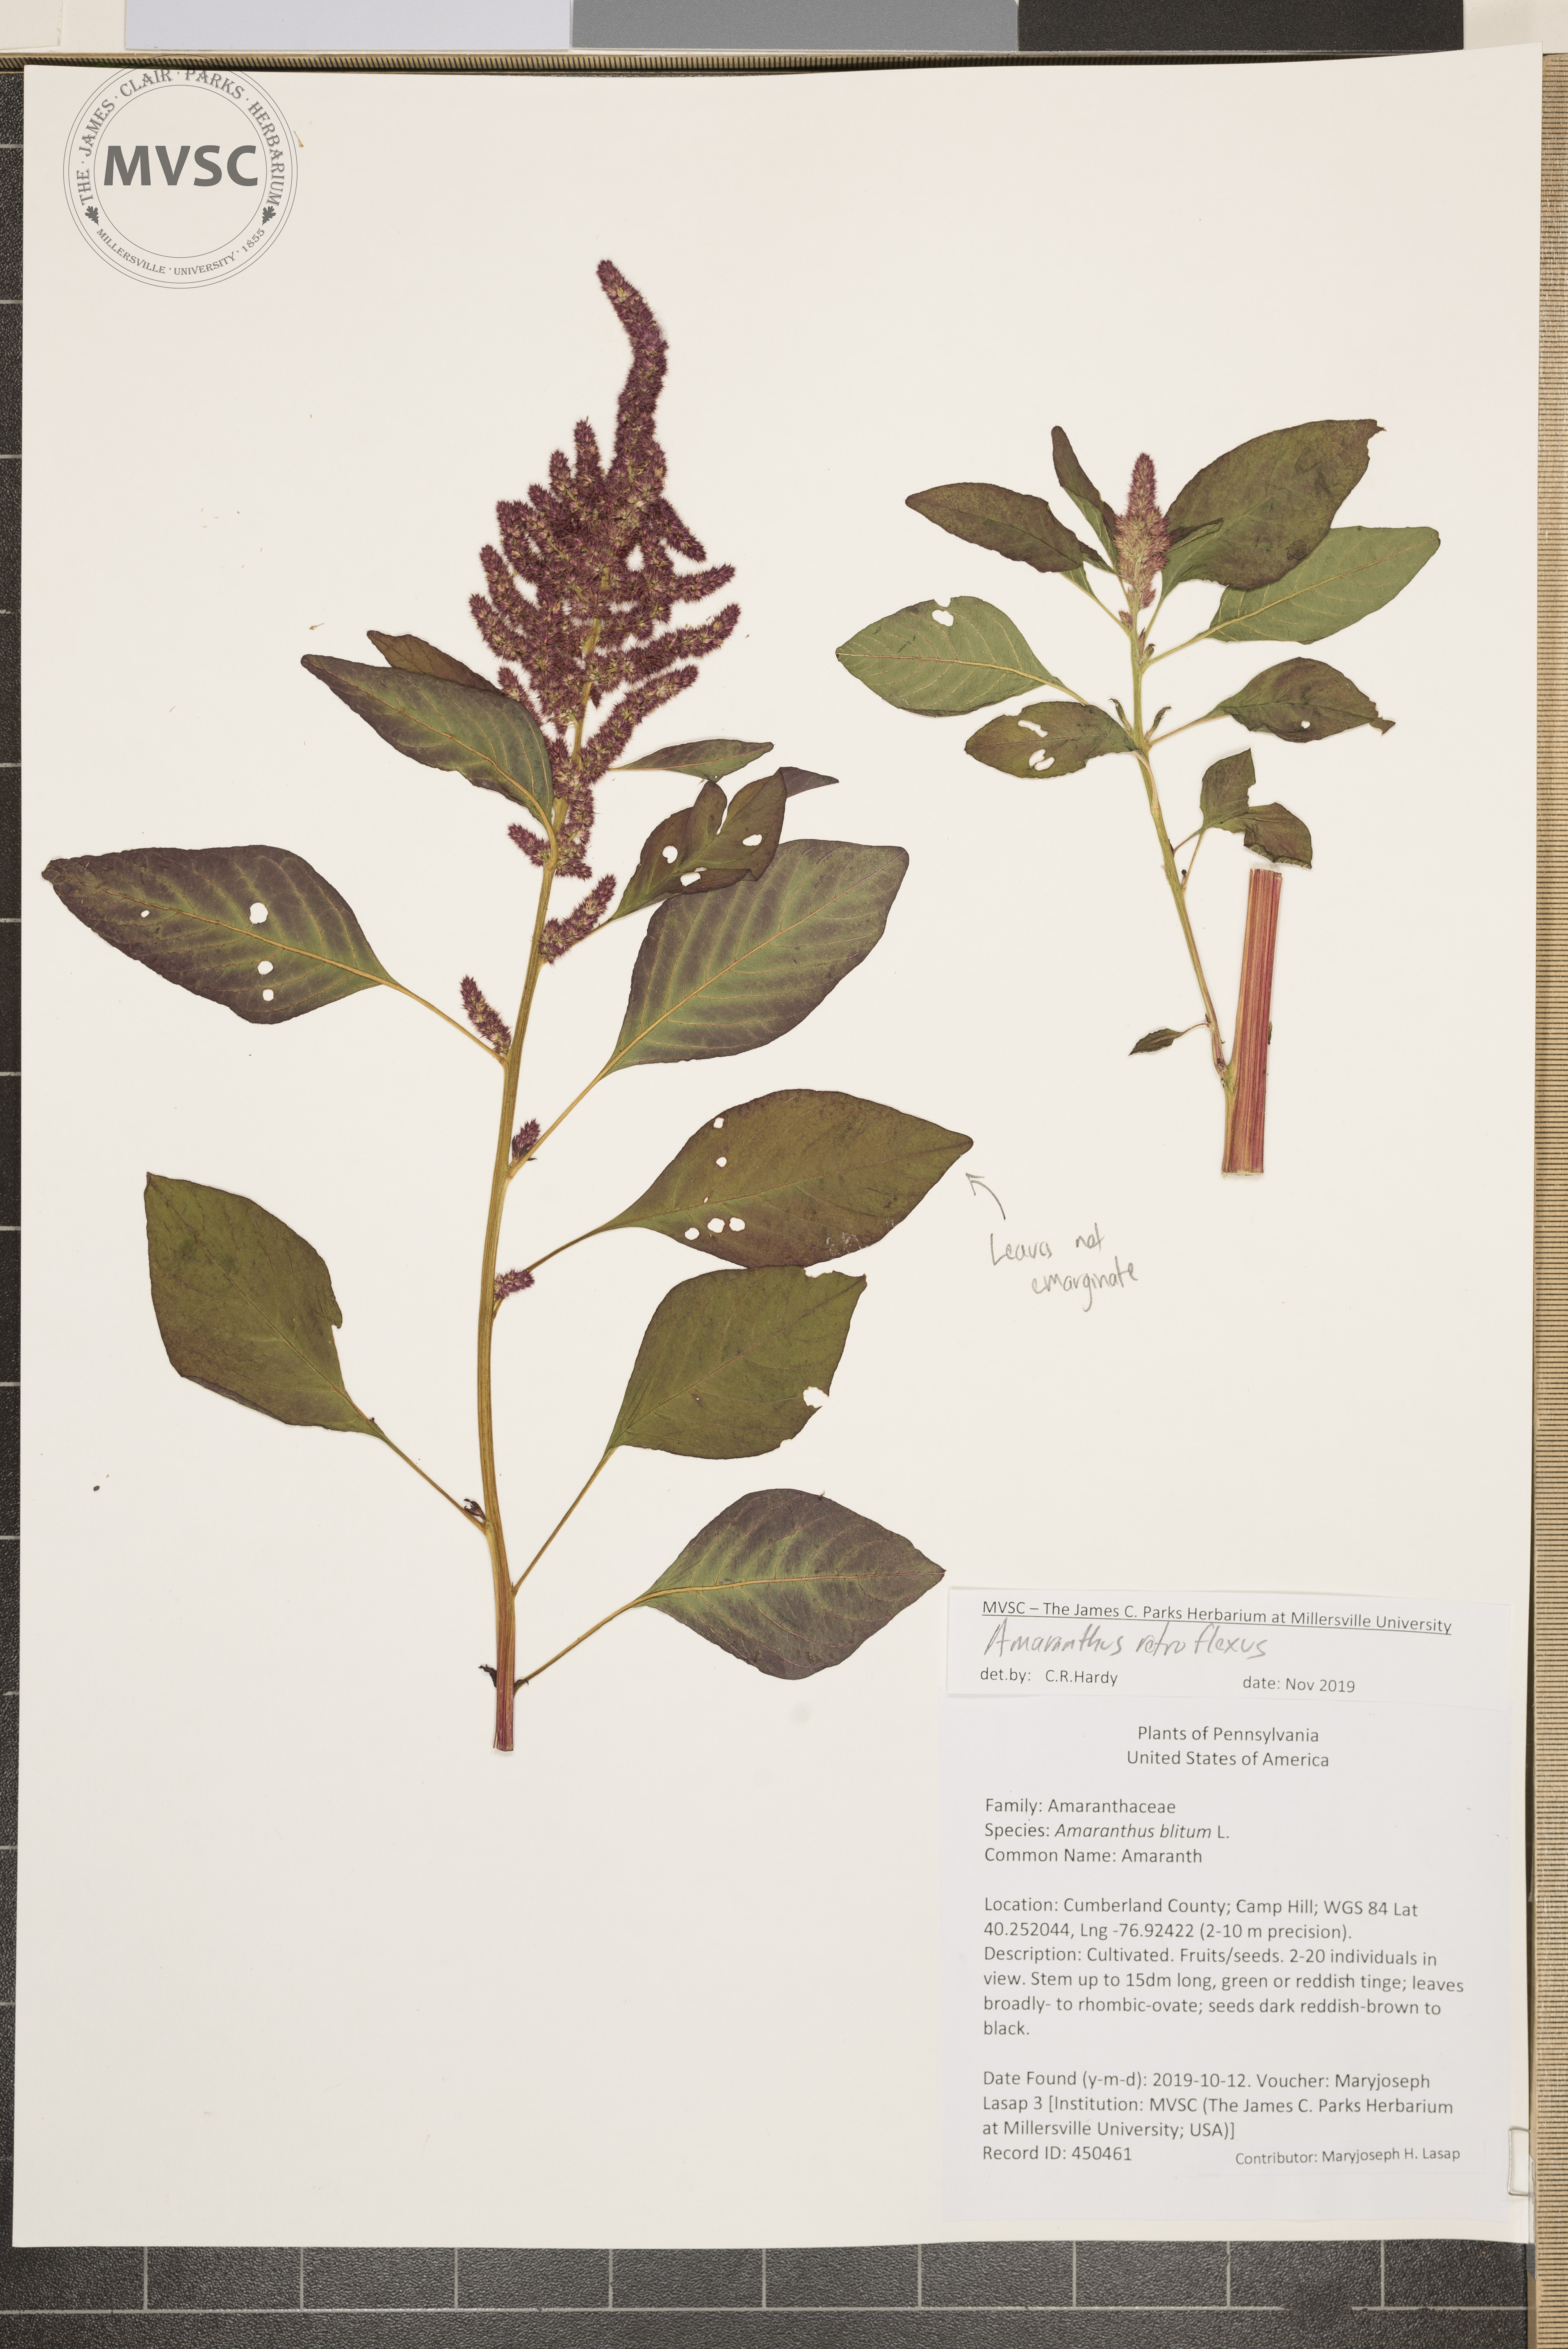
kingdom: Plantae
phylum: Tracheophyta
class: Magnoliopsida
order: Caryophyllales
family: Amaranthaceae
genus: Amaranthus
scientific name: Amaranthus cruentus
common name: Amaranth
